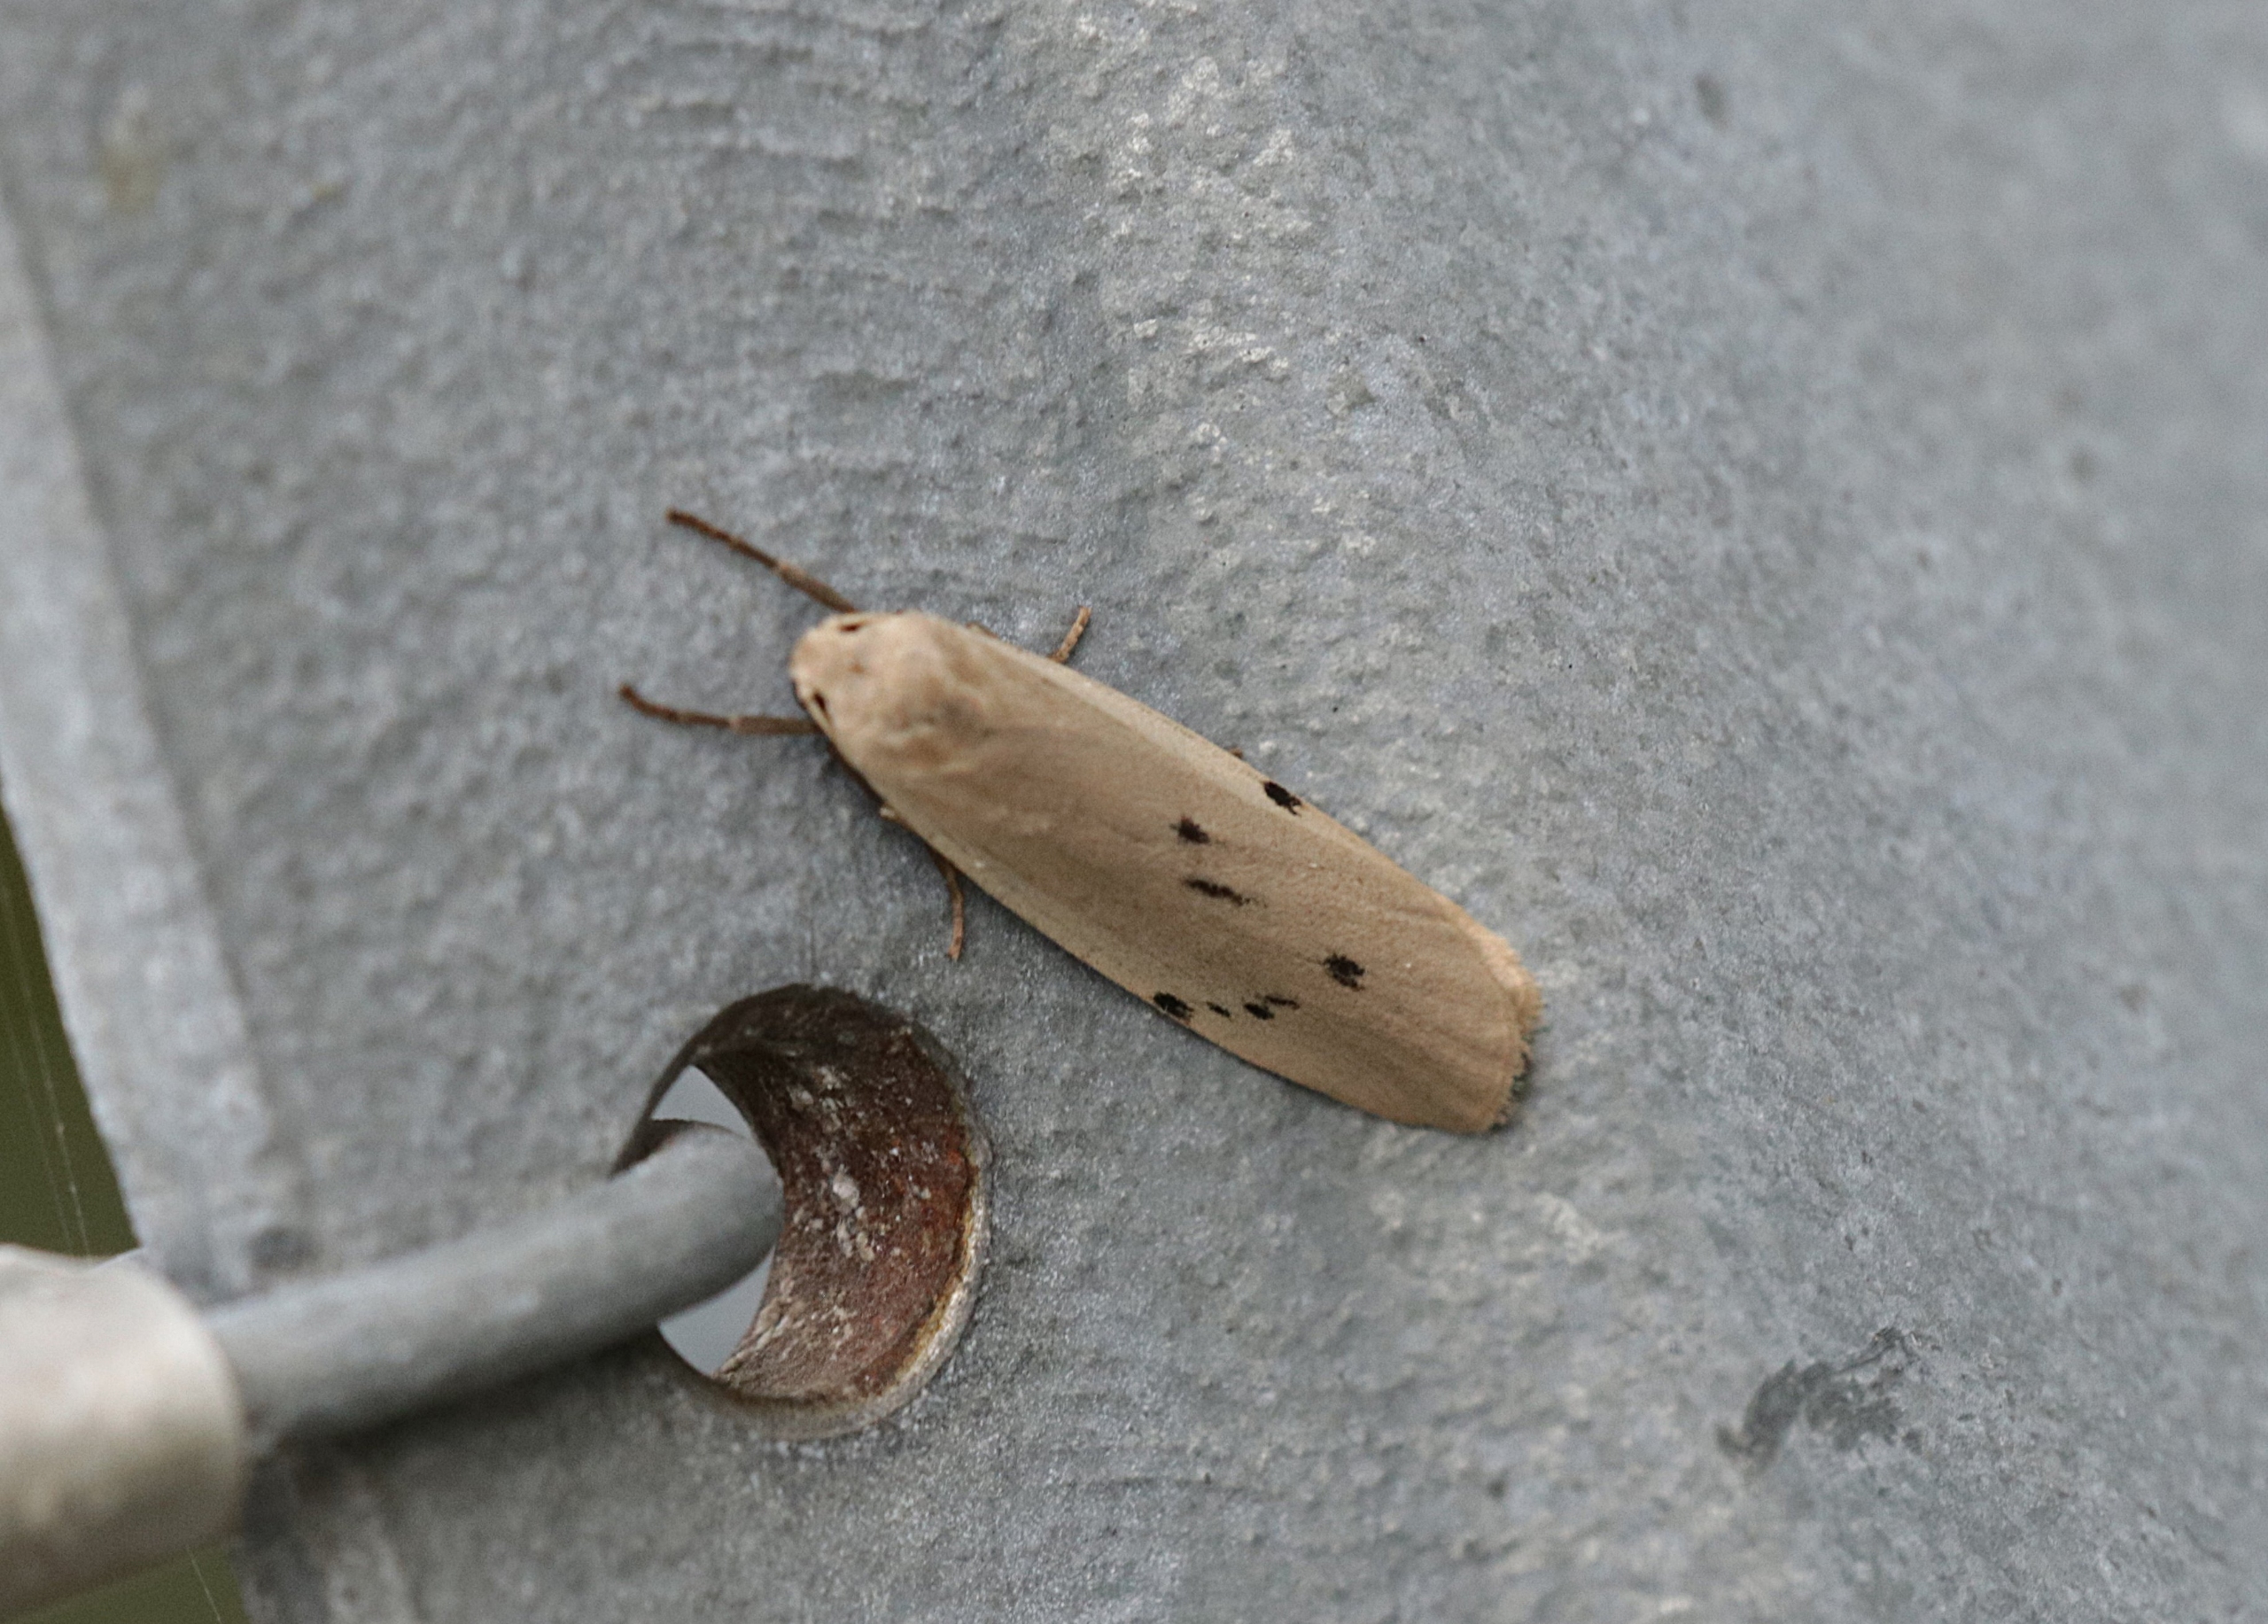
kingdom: Animalia
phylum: Arthropoda
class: Insecta
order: Lepidoptera
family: Erebidae
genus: Pelosia
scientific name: Pelosia muscerda
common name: Prikket lavspinder
